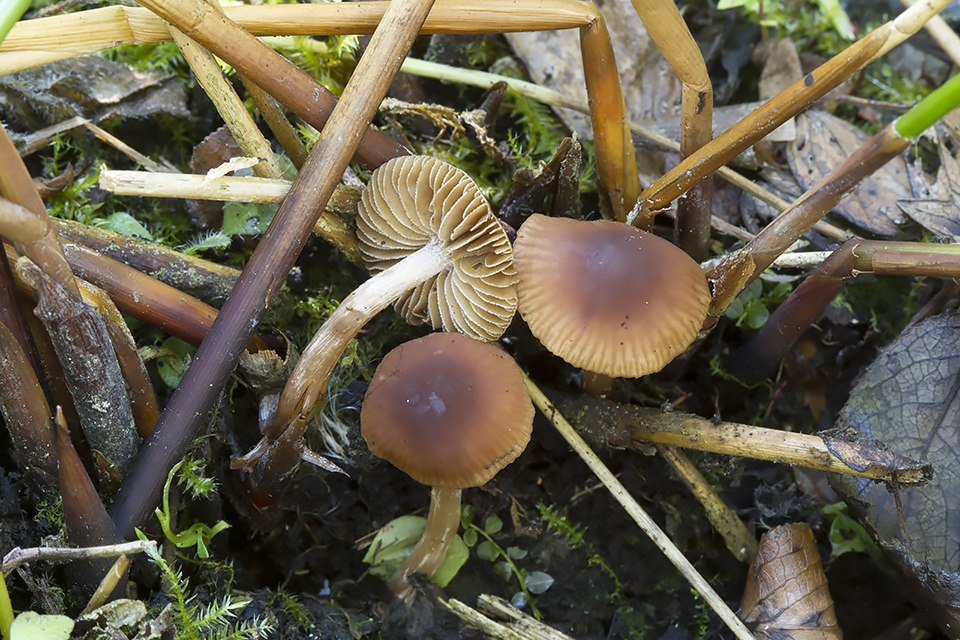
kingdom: Fungi
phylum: Basidiomycota
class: Agaricomycetes
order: Agaricales
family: Hymenogastraceae
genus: Naucoria
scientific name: Naucoria salicis
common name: pile-knaphat
